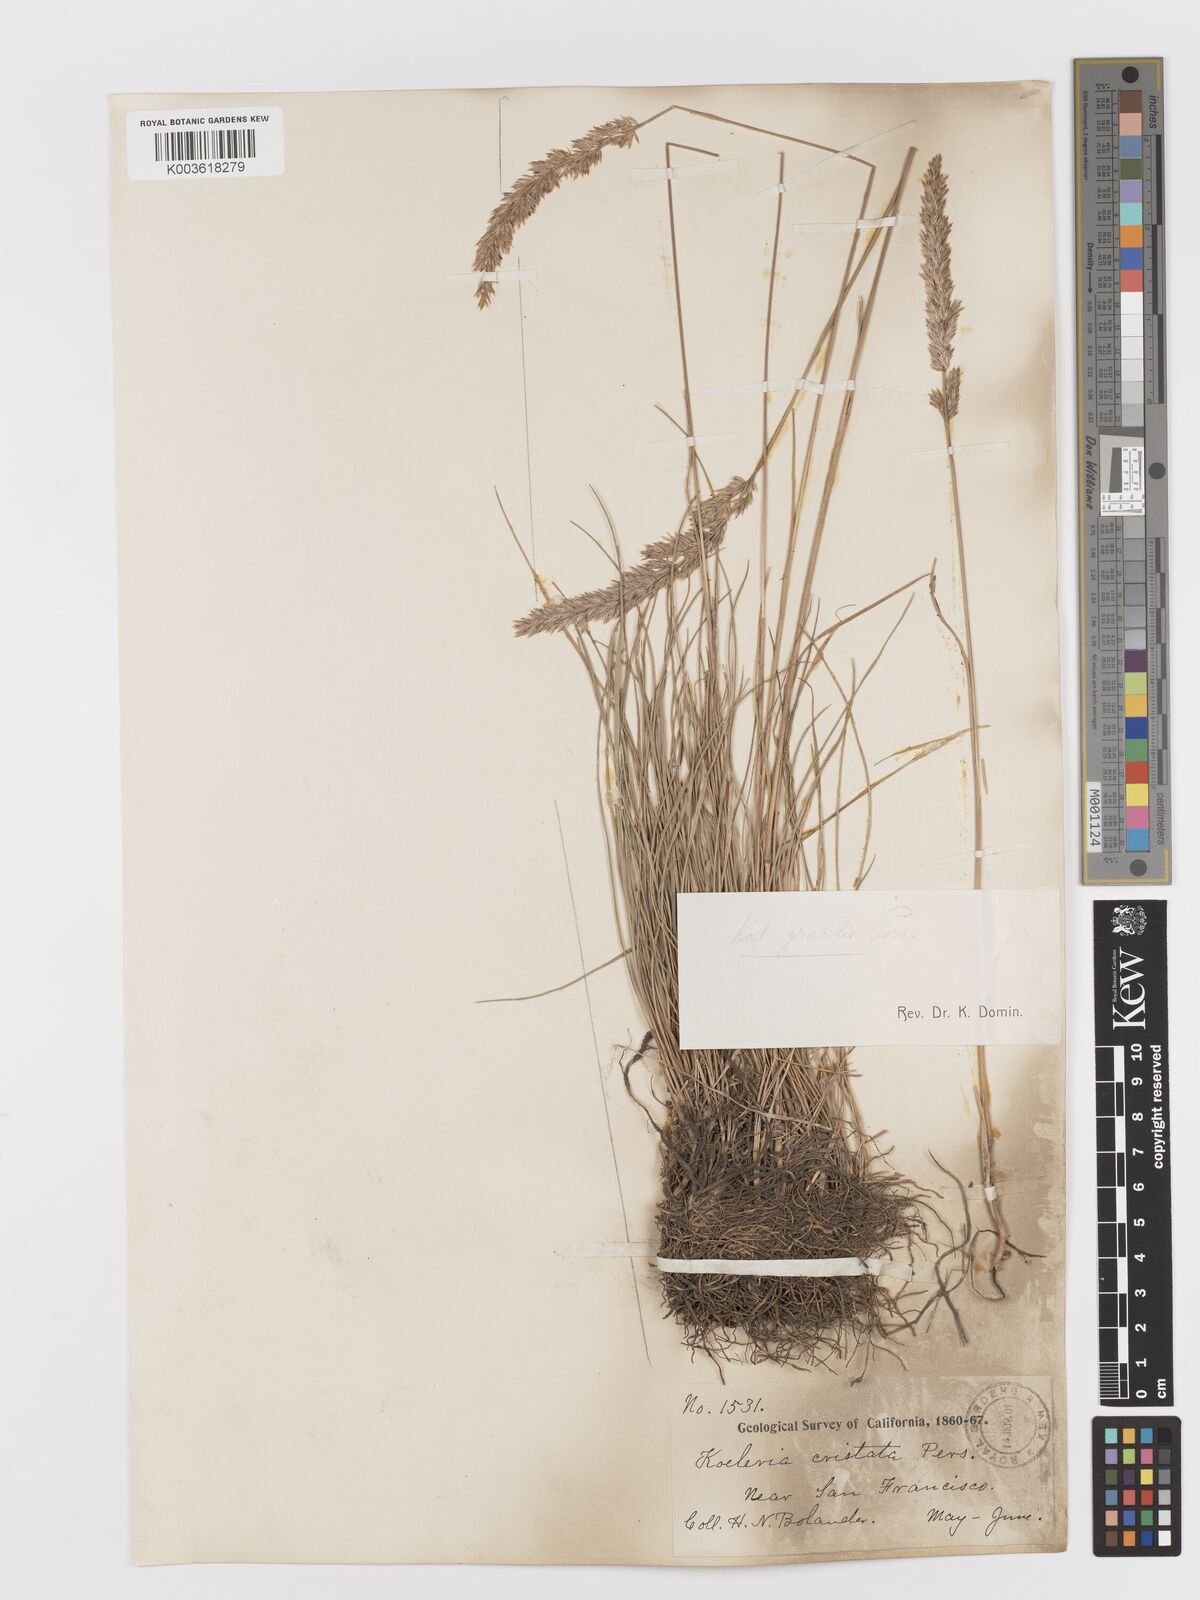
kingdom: Plantae
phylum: Tracheophyta
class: Liliopsida
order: Poales
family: Poaceae
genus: Koeleria
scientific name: Koeleria macrantha
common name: Crested hair-grass
